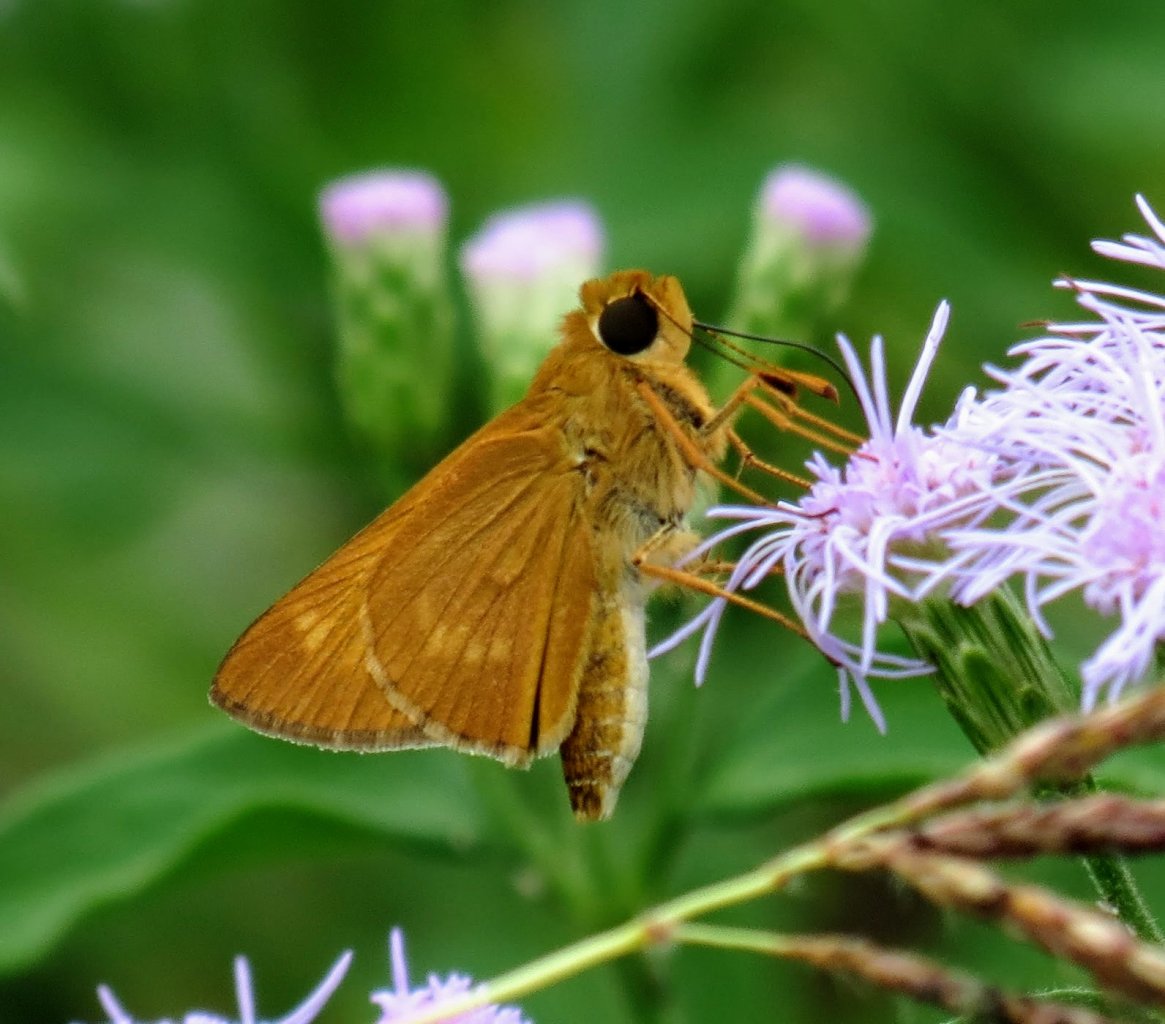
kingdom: Animalia
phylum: Arthropoda
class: Insecta
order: Lepidoptera
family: Hesperiidae
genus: Mellana
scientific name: Mellana eulogius
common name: Common Mellana
